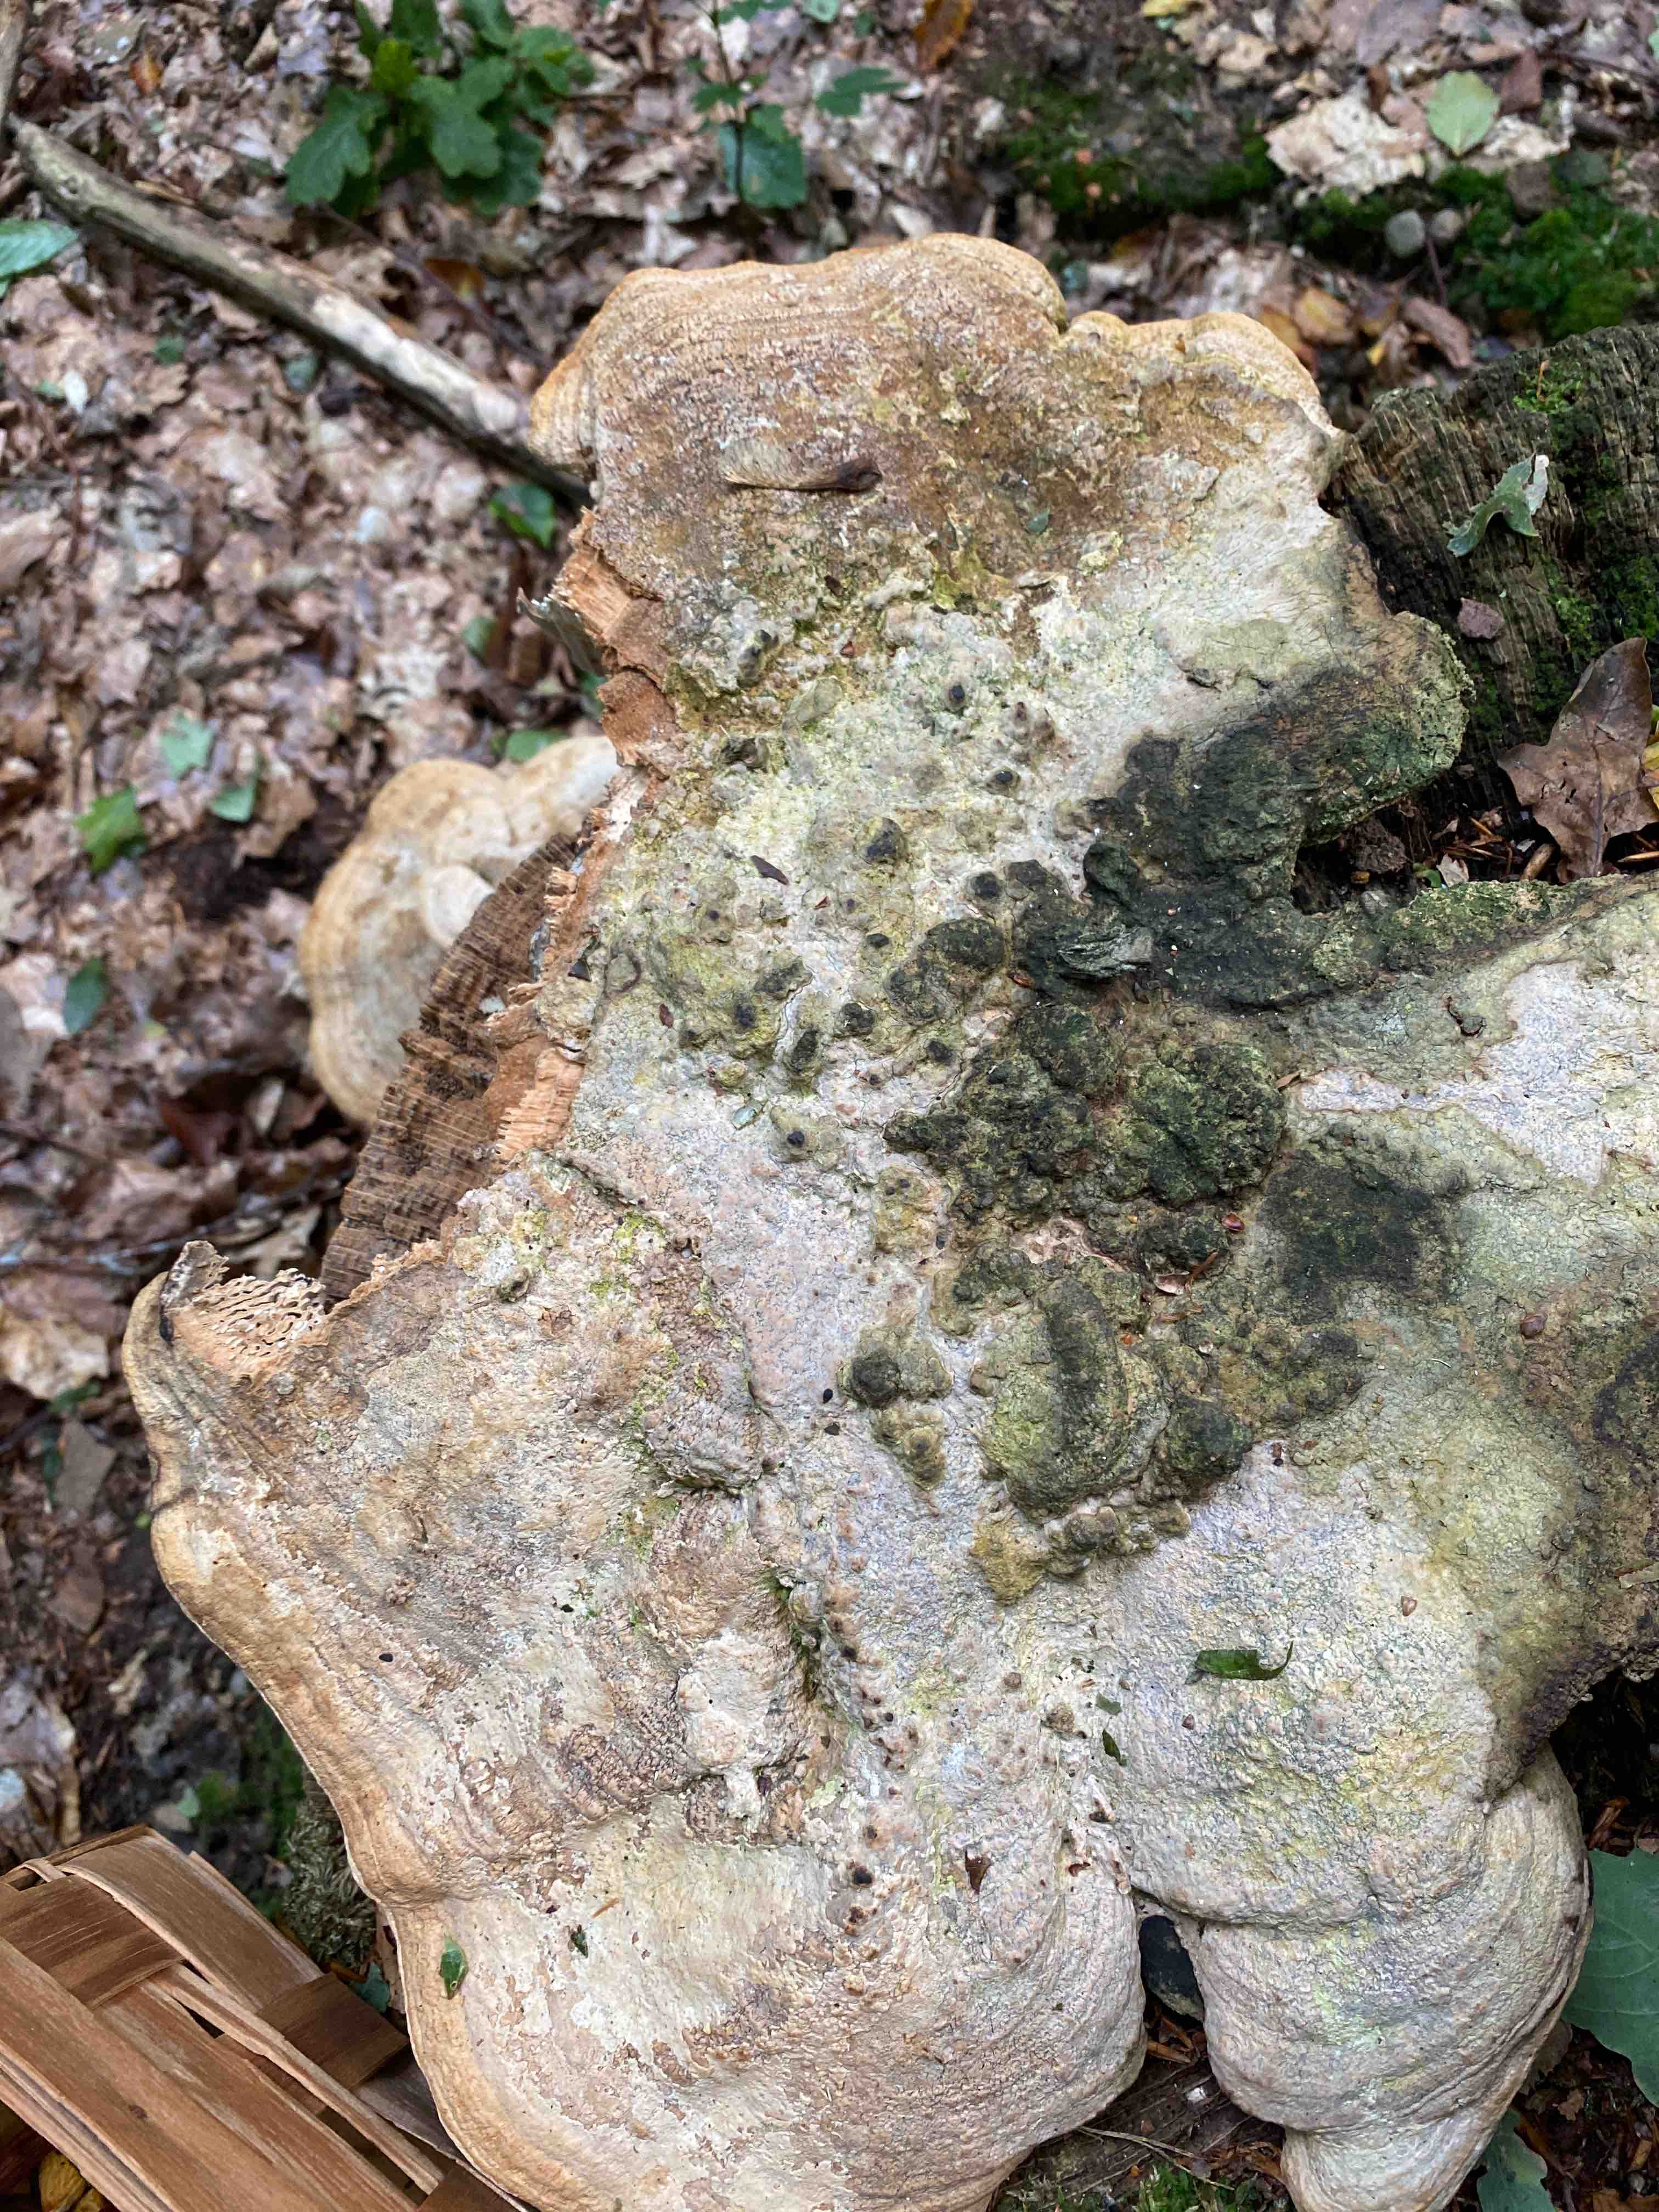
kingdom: Fungi
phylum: Basidiomycota
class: Agaricomycetes
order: Polyporales
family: Fomitopsidaceae
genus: Daedalea
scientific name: Daedalea quercina
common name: ege-labyrintsvamp
